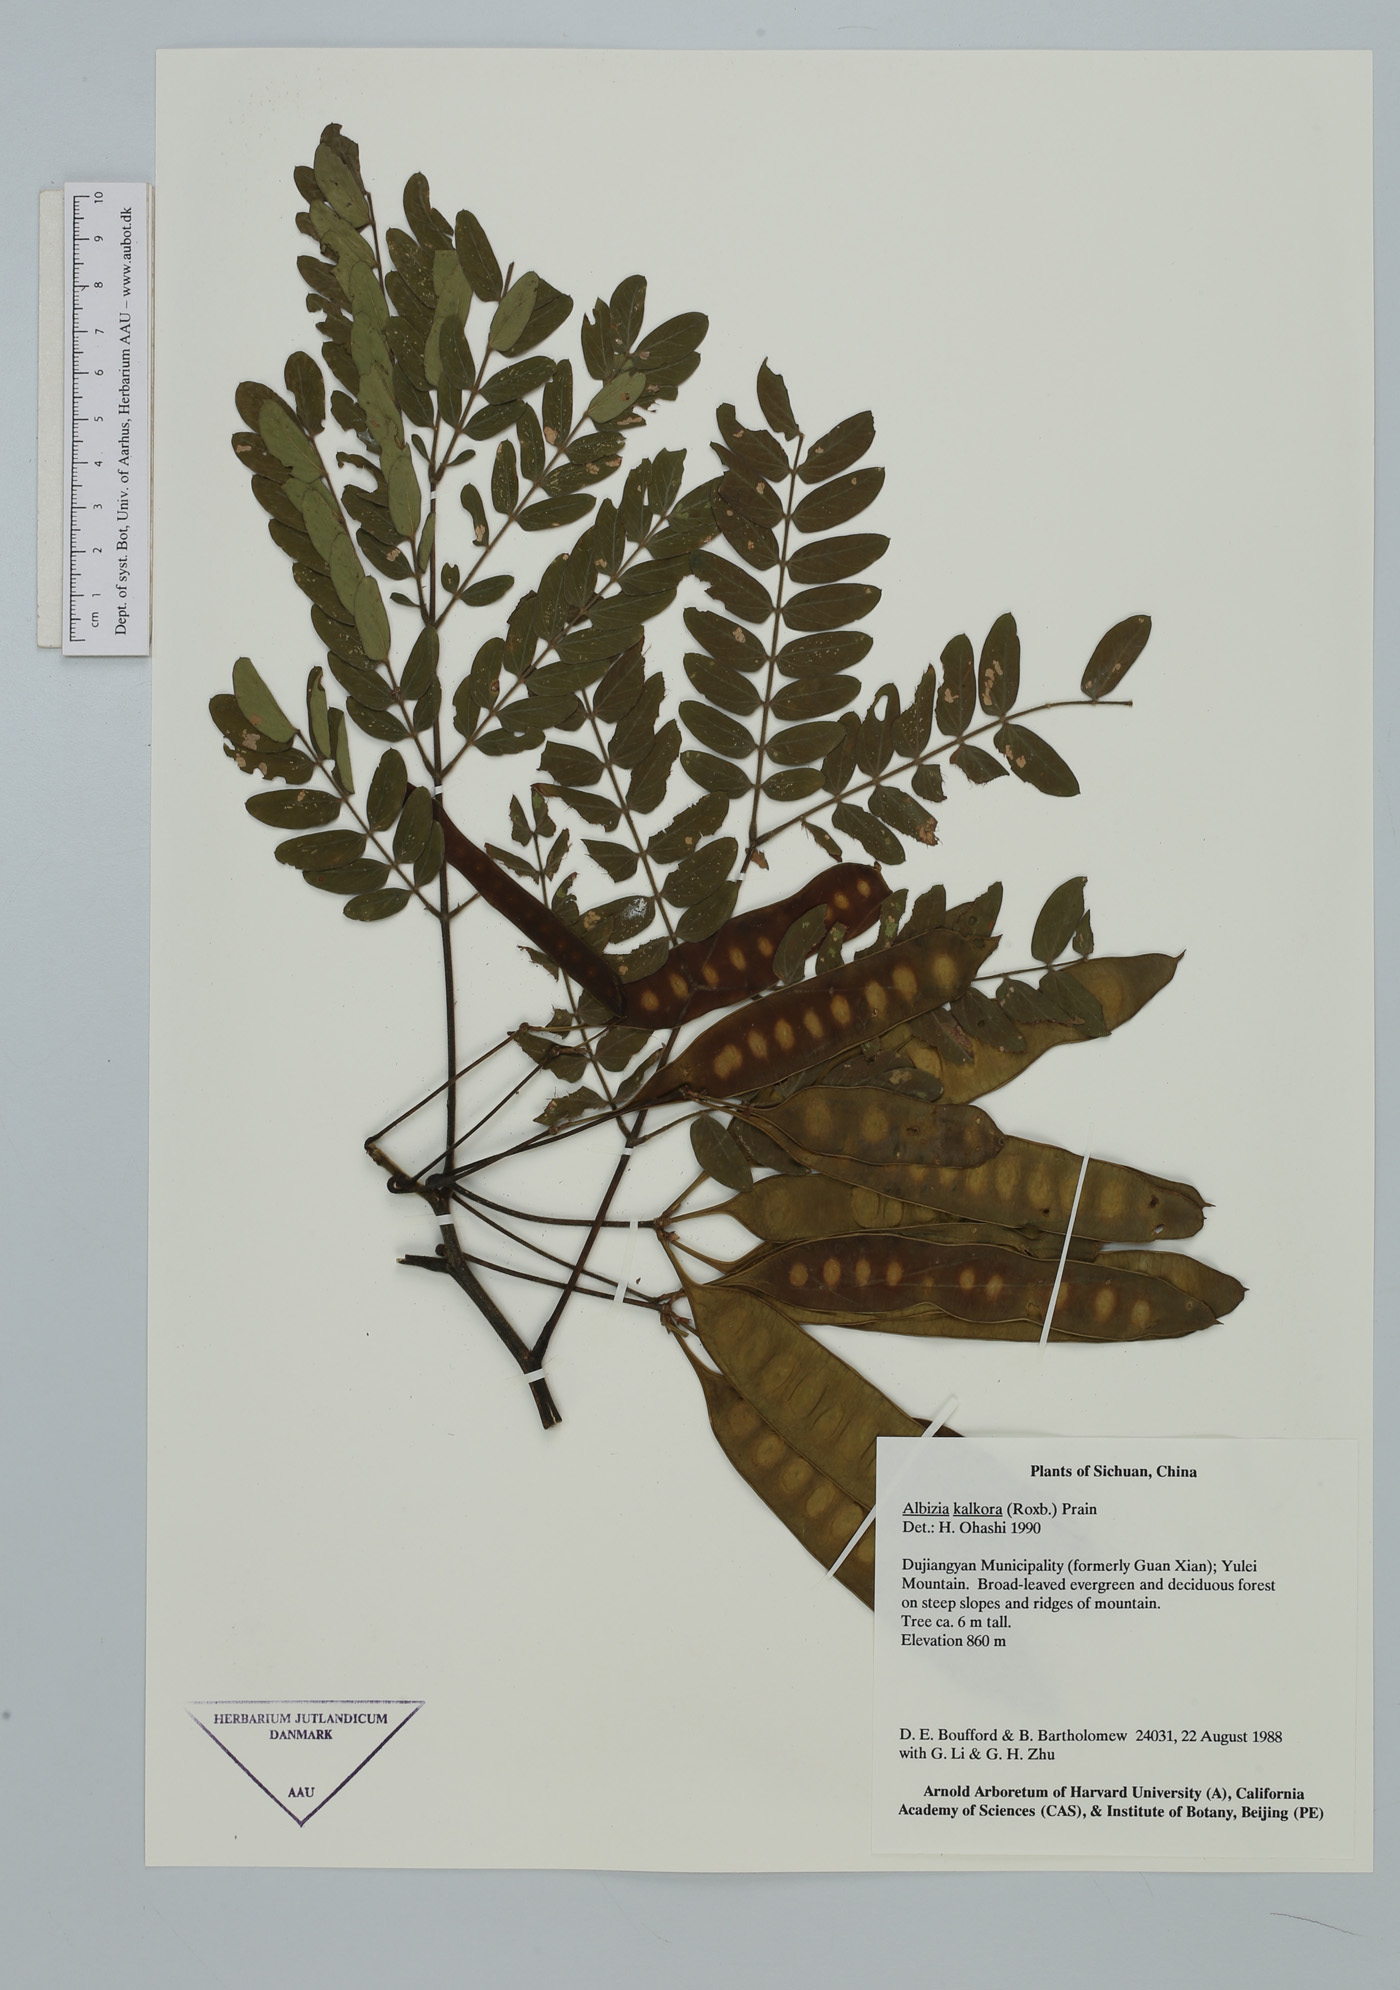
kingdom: Plantae
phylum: Tracheophyta
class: Magnoliopsida
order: Fabales
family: Fabaceae
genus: Albizia
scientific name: Albizia kalkora
